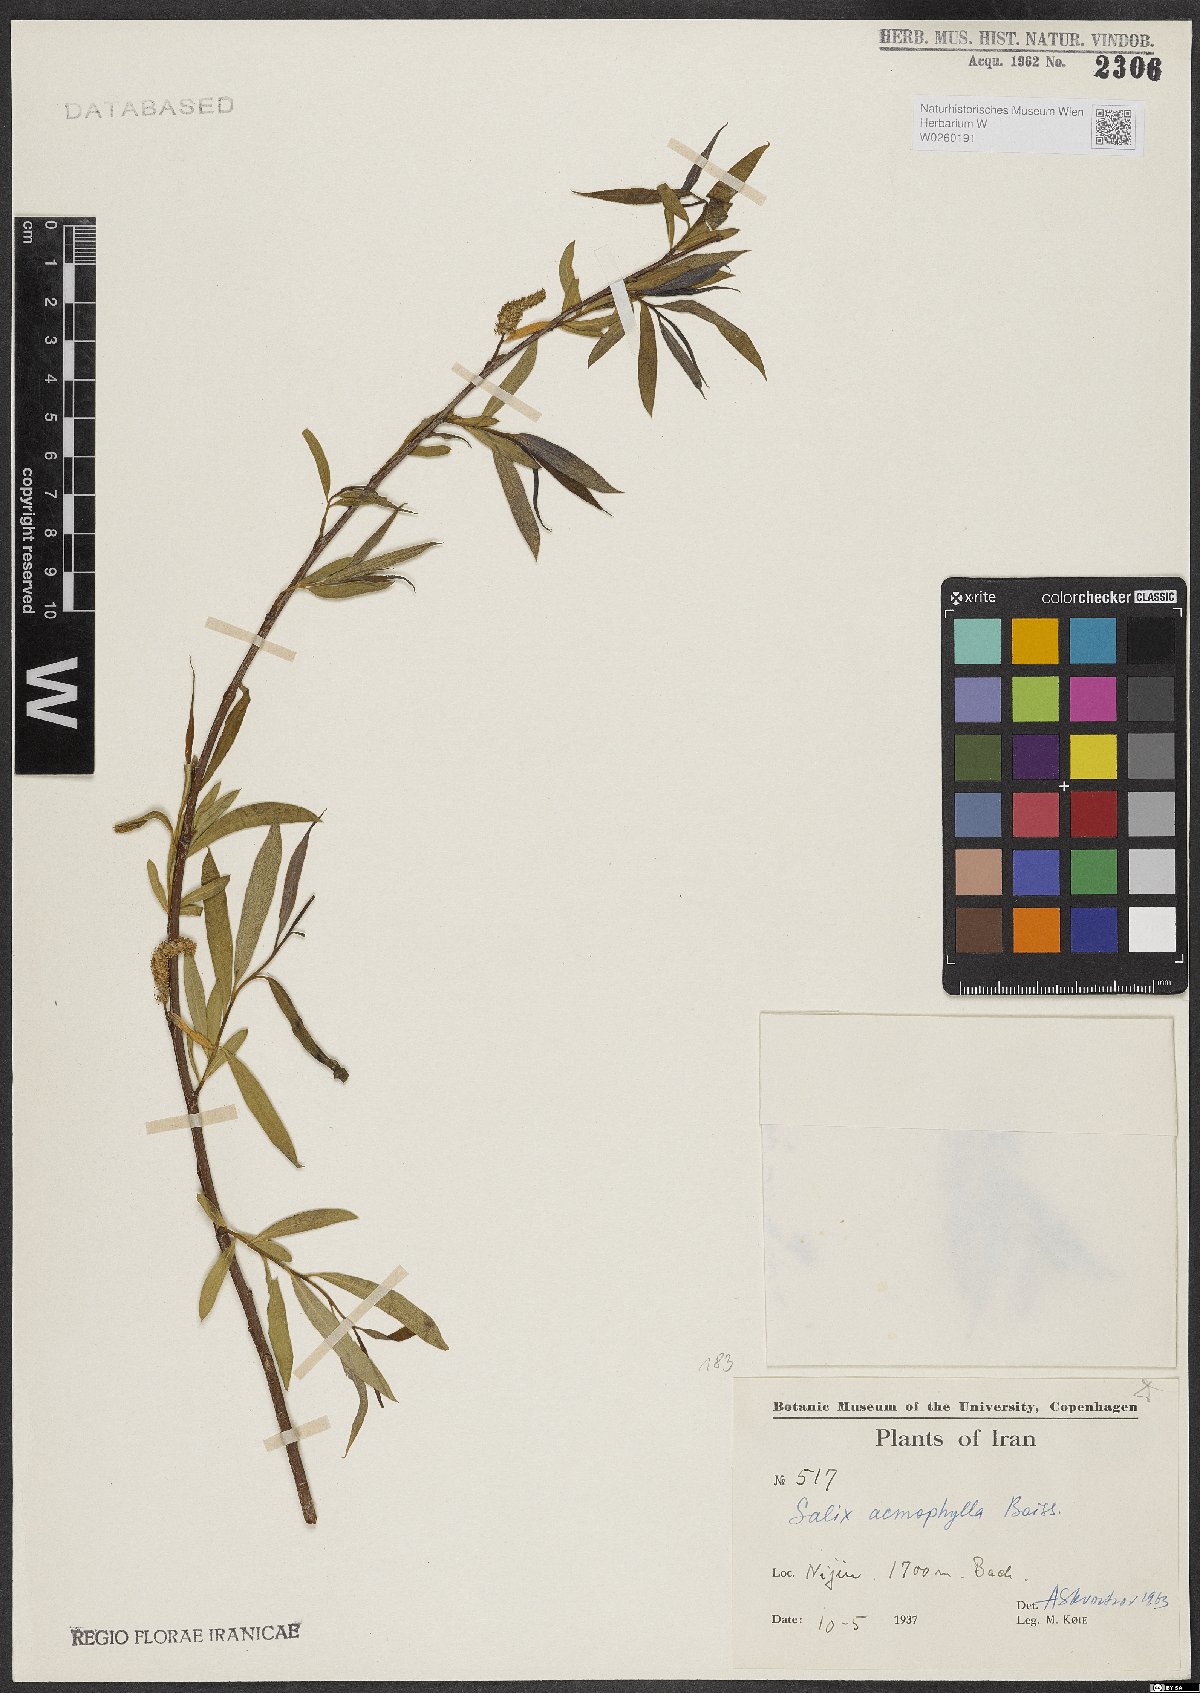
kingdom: Plantae
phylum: Tracheophyta
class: Magnoliopsida
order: Malpighiales
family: Salicaceae
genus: Salix
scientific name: Salix acmophylla
